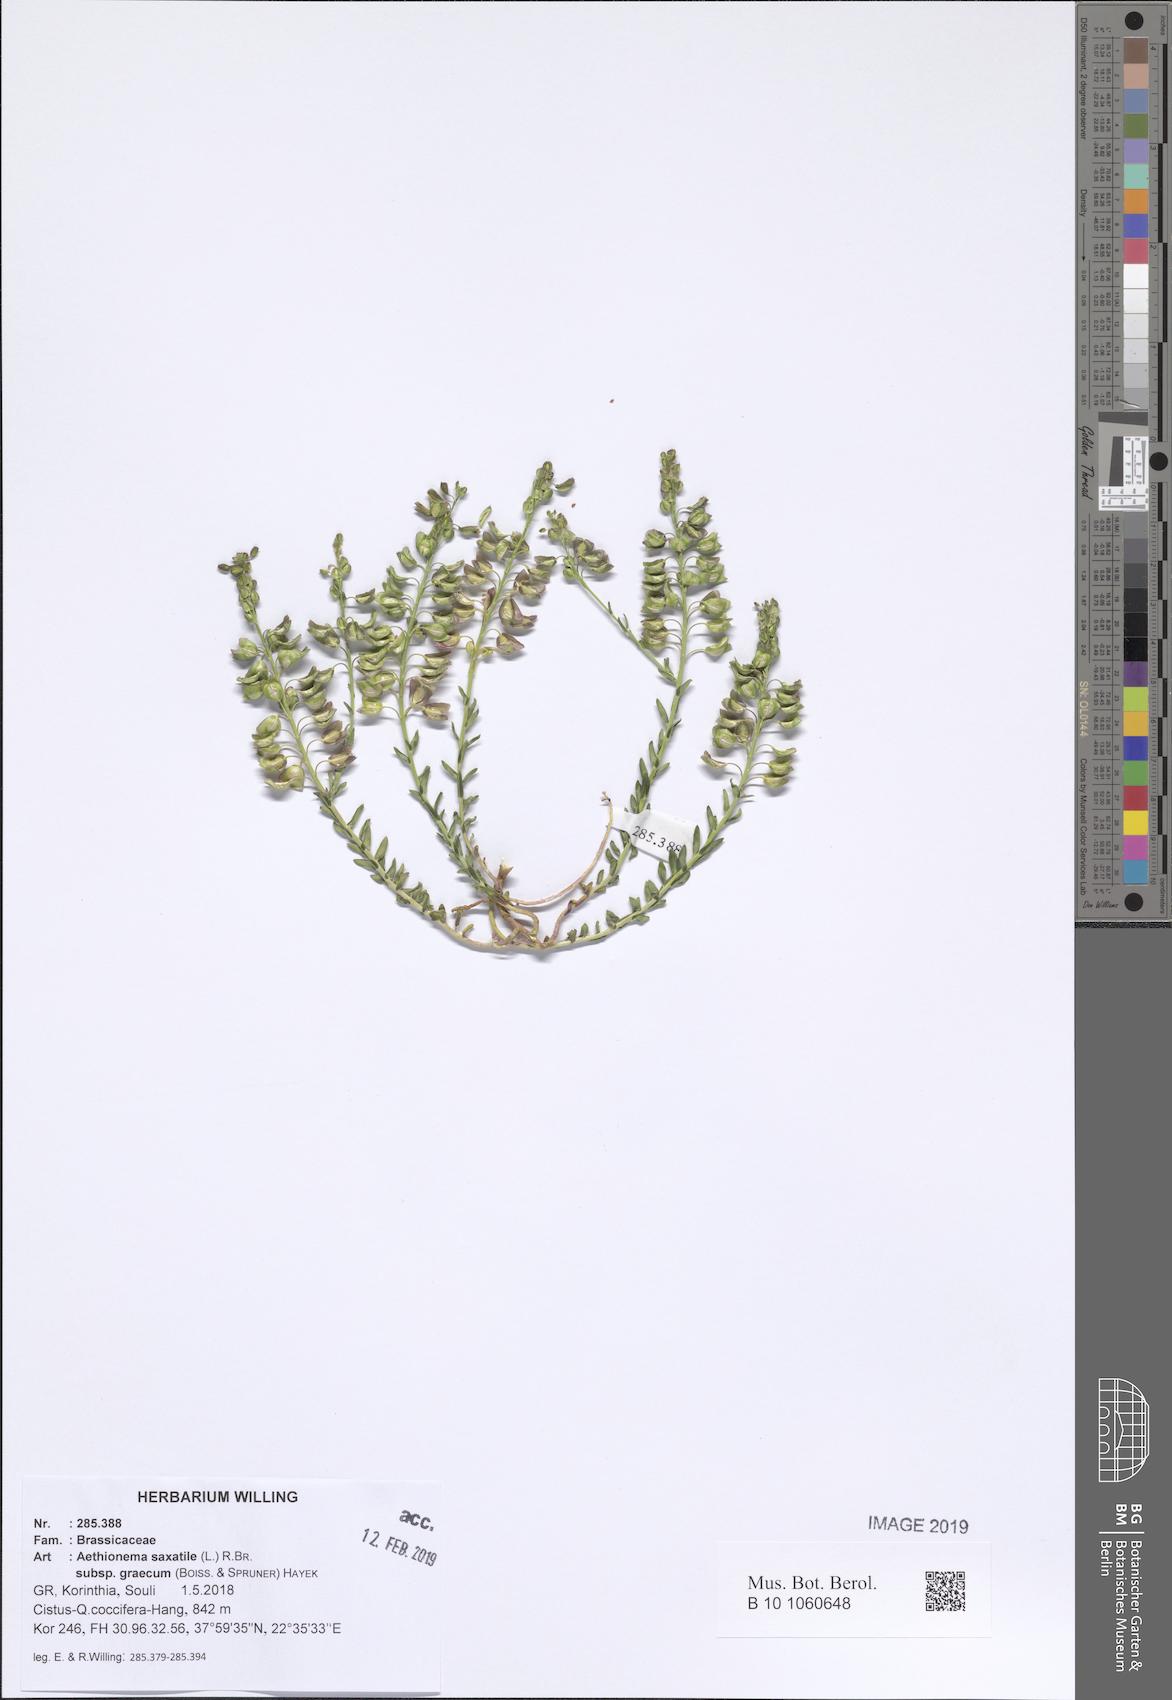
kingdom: Plantae
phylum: Tracheophyta
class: Magnoliopsida
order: Brassicales
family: Brassicaceae
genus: Aethionema
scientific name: Aethionema saxatile
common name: Burnt candytuft
